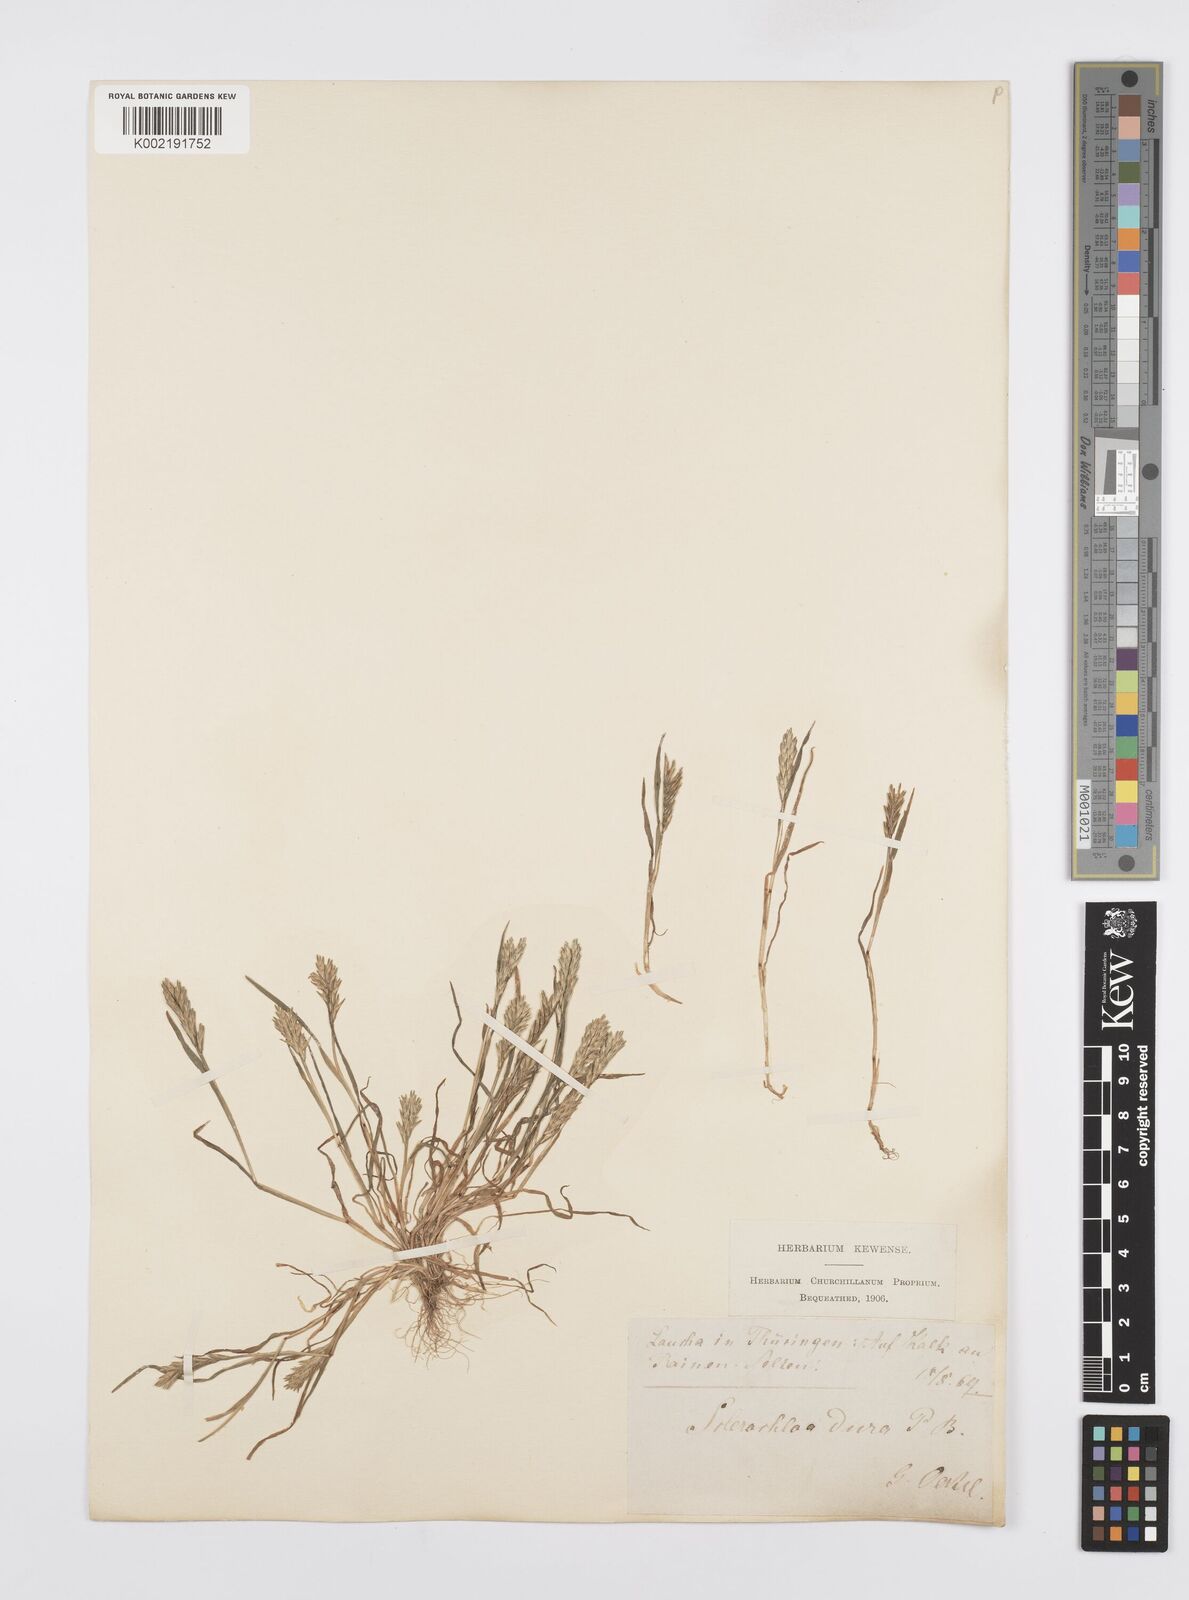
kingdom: Plantae
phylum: Tracheophyta
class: Liliopsida
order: Poales
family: Poaceae
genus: Sclerochloa
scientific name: Sclerochloa dura
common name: Common hardgrass
